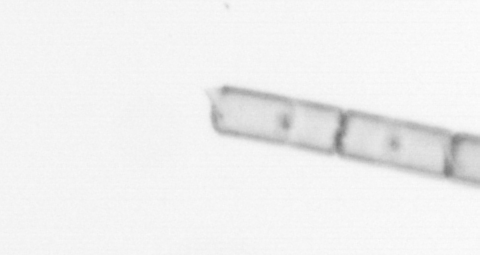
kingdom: Chromista
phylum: Ochrophyta
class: Bacillariophyceae
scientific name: Bacillariophyceae
